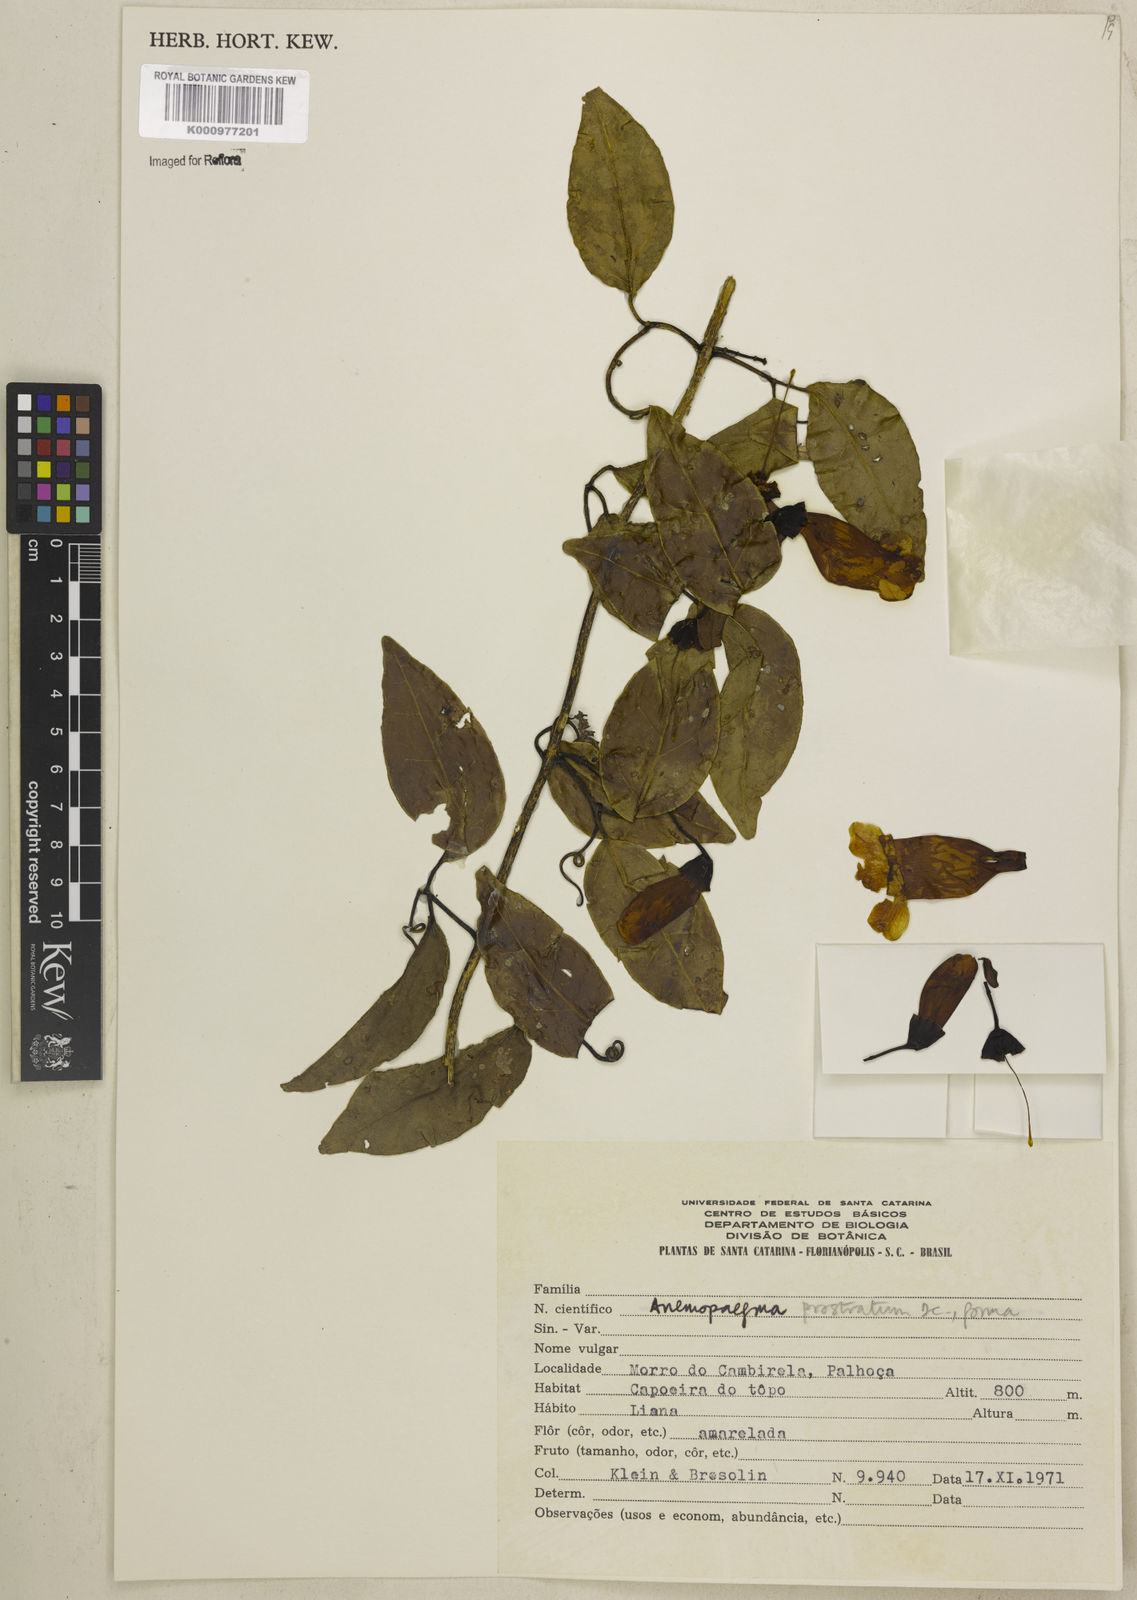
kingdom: Plantae
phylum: Tracheophyta
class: Magnoliopsida
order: Lamiales
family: Bignoniaceae
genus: Anemopaegma
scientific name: Anemopaegma nebulosum
